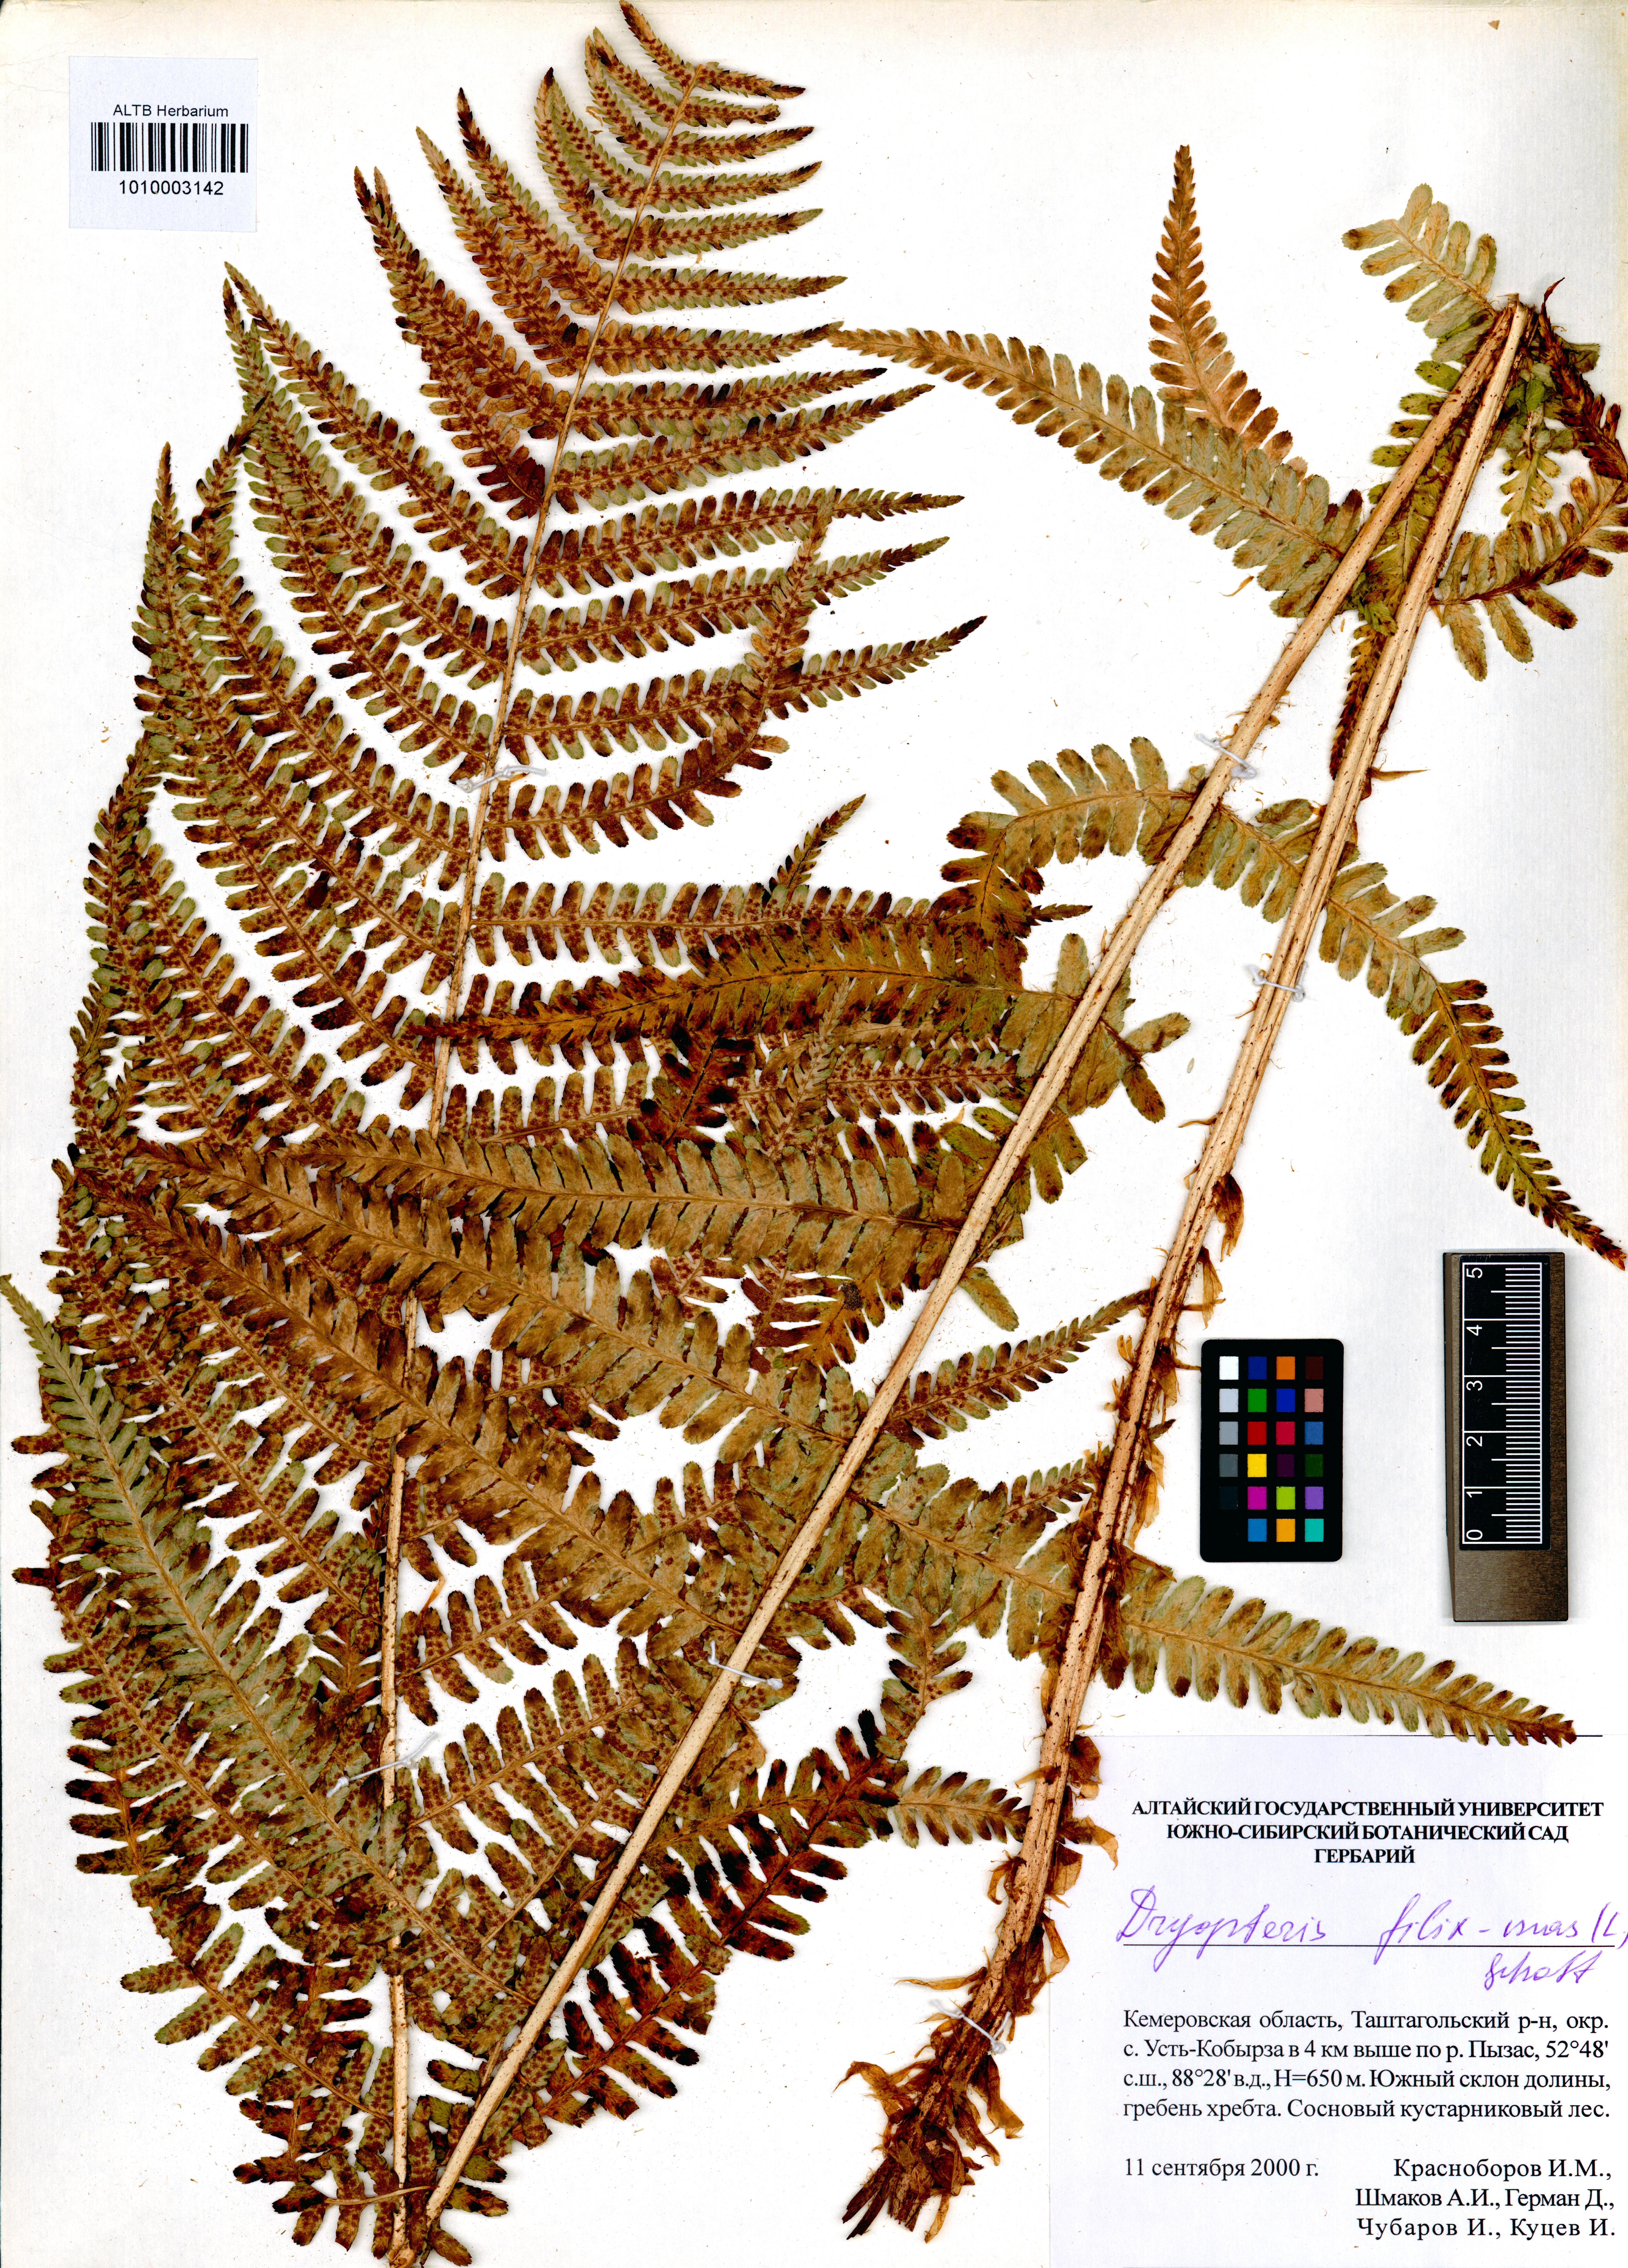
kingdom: Plantae
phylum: Tracheophyta
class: Polypodiopsida
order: Polypodiales
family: Dryopteridaceae
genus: Dryopteris
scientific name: Dryopteris filix-mas
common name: Male fern
